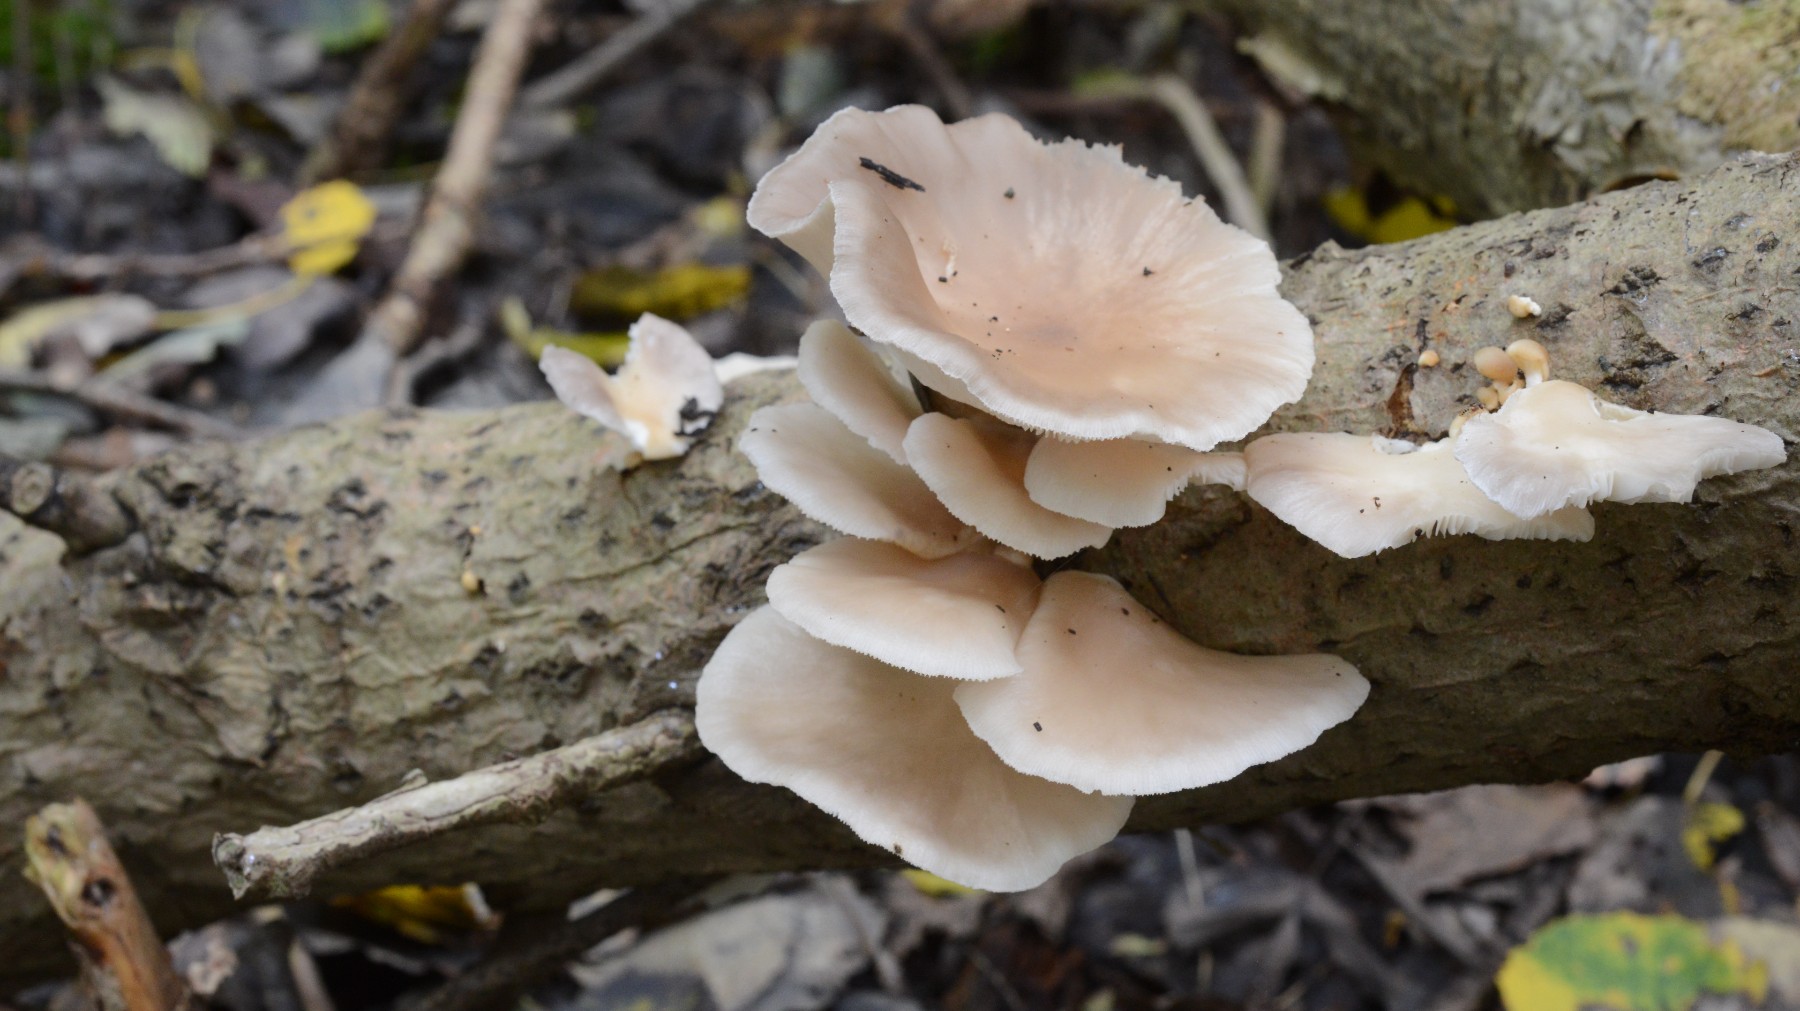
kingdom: Fungi
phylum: Basidiomycota
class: Agaricomycetes
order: Agaricales
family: Pleurotaceae
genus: Pleurotus
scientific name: Pleurotus pulmonarius
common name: sommer-østershat
